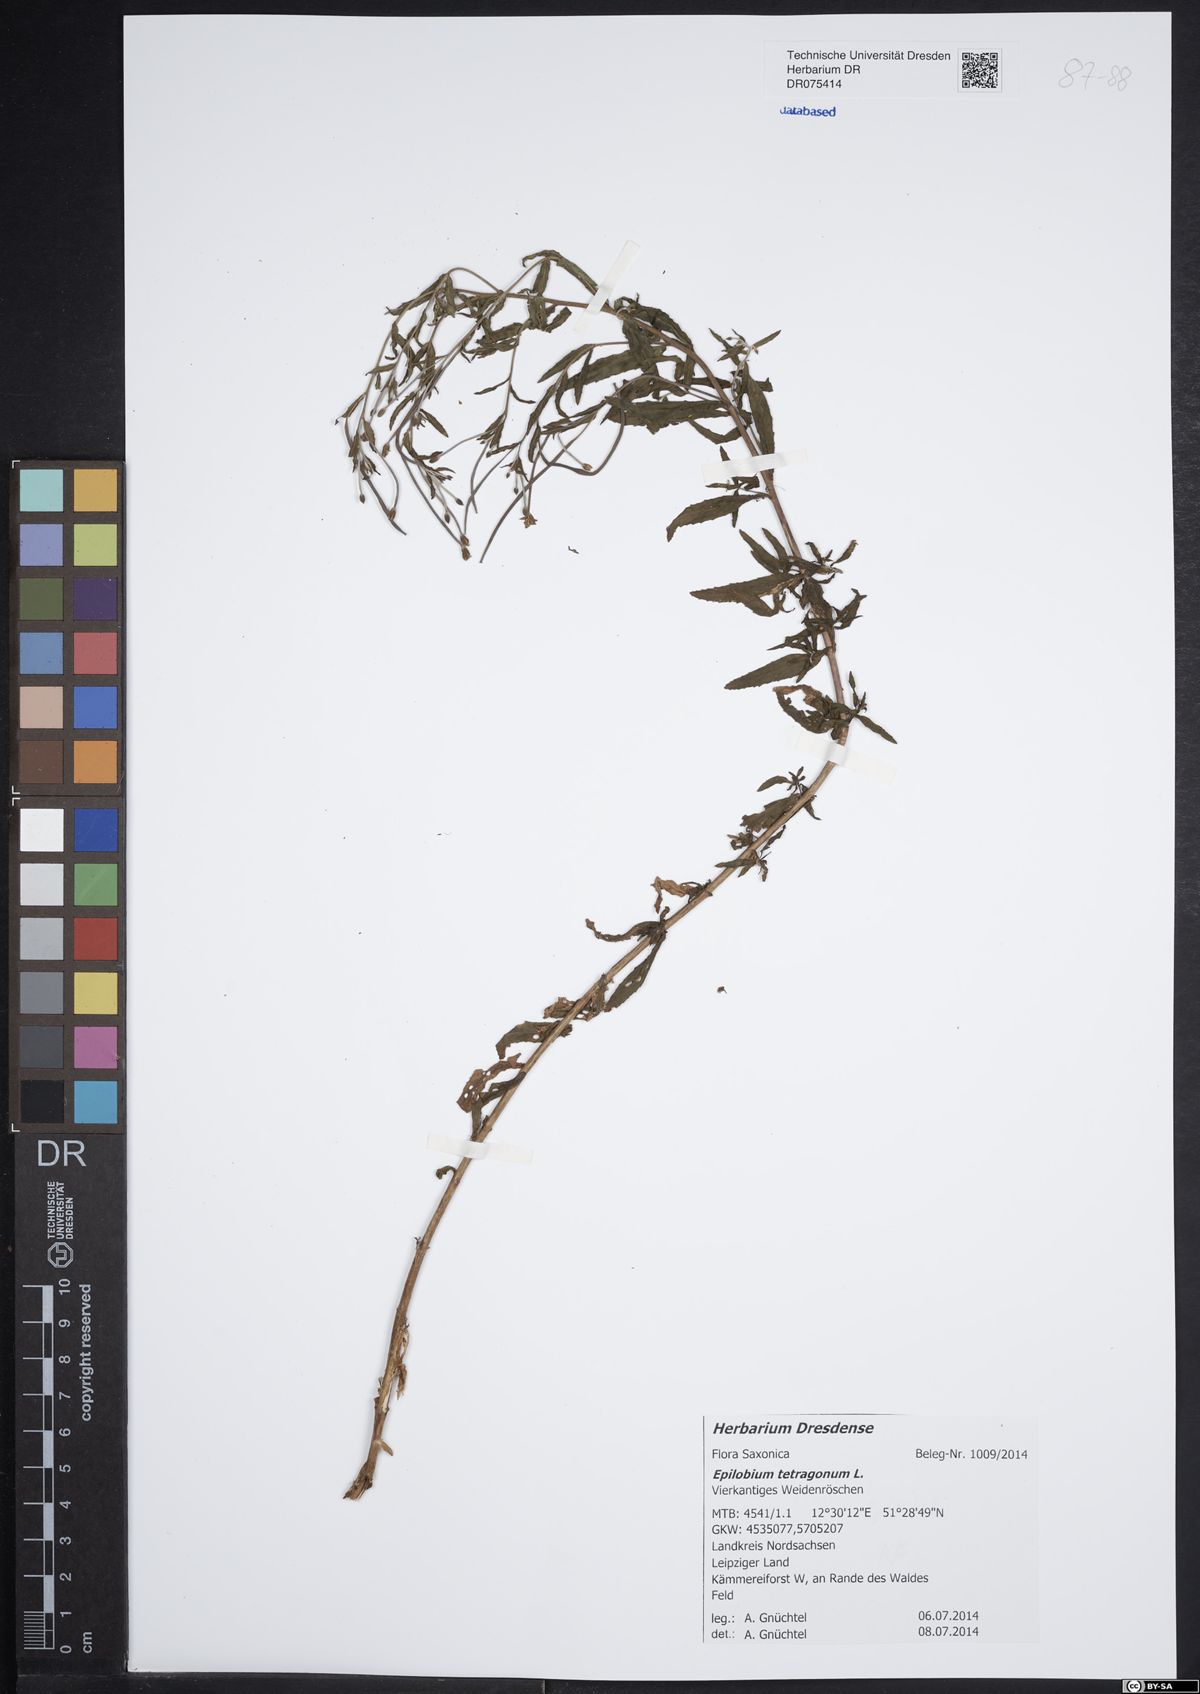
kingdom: Plantae
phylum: Tracheophyta
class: Magnoliopsida
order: Myrtales
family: Onagraceae
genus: Epilobium
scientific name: Epilobium tetragonum
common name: Square-stemmed willowherb
